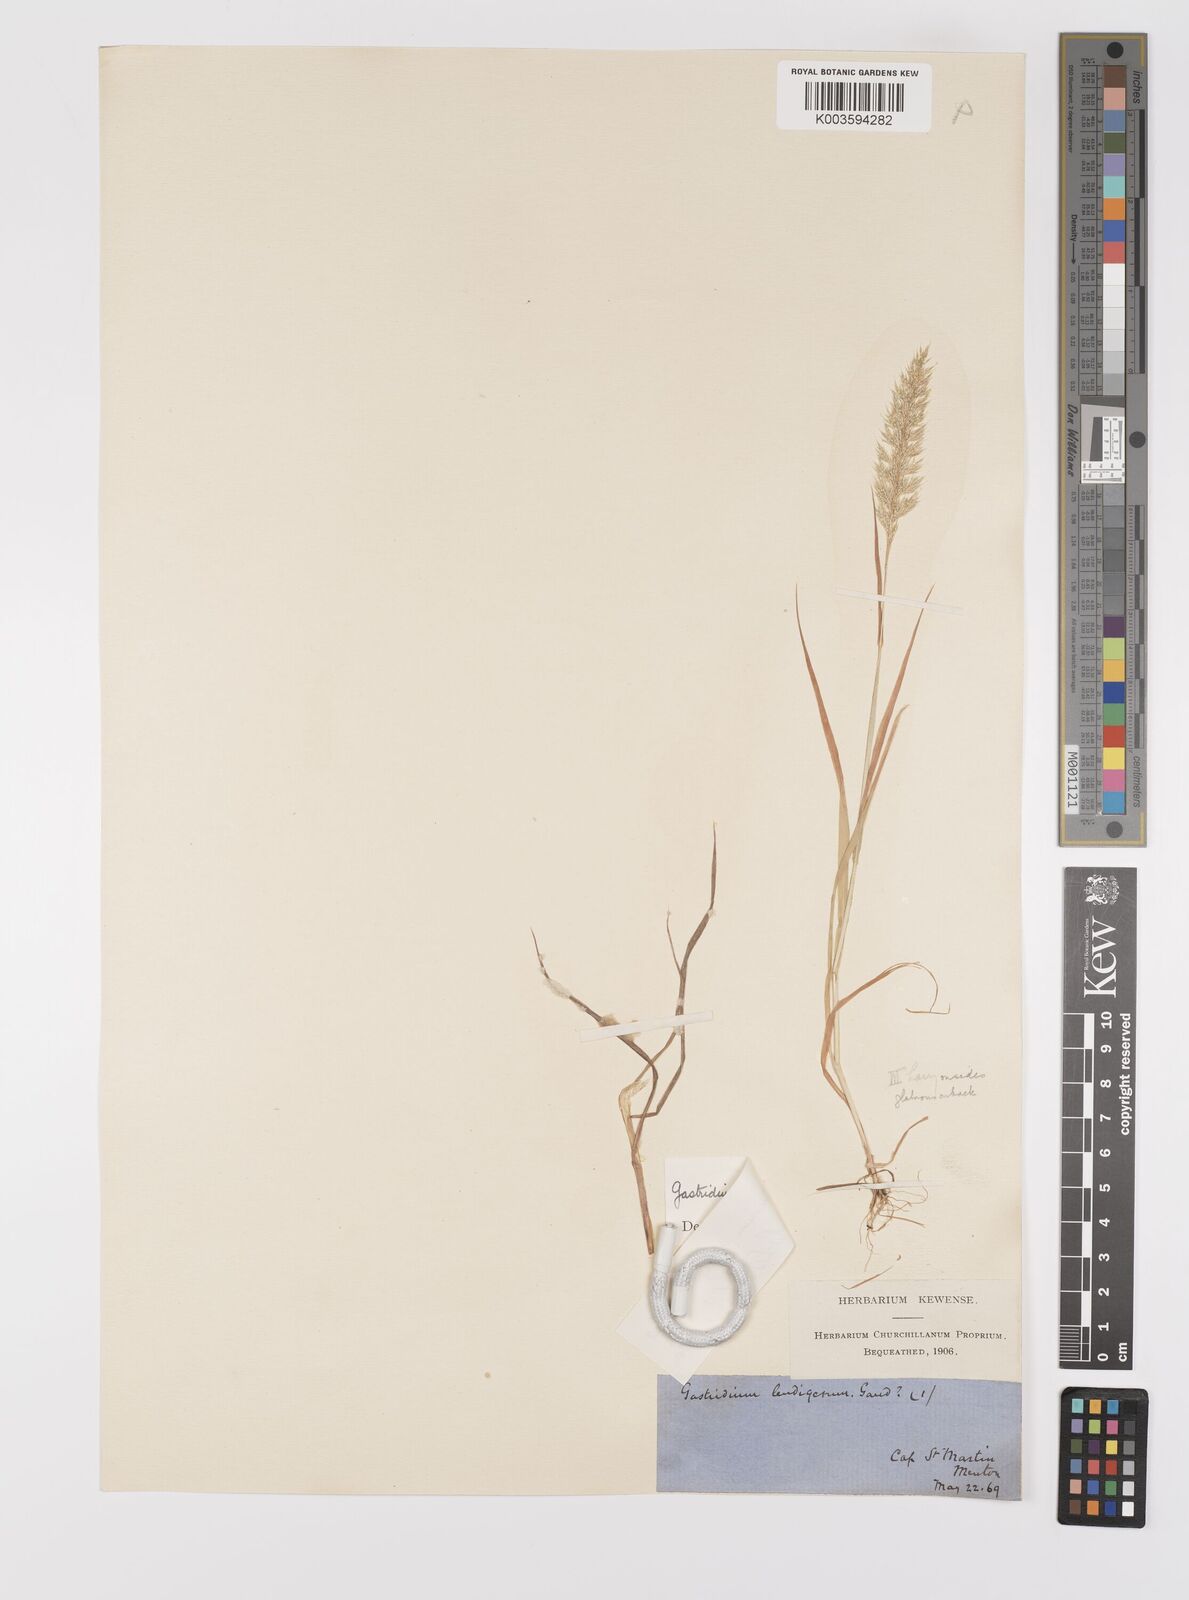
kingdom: Plantae
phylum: Tracheophyta
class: Liliopsida
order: Poales
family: Poaceae
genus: Gastridium
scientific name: Gastridium ventricosum
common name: Nit-grass
